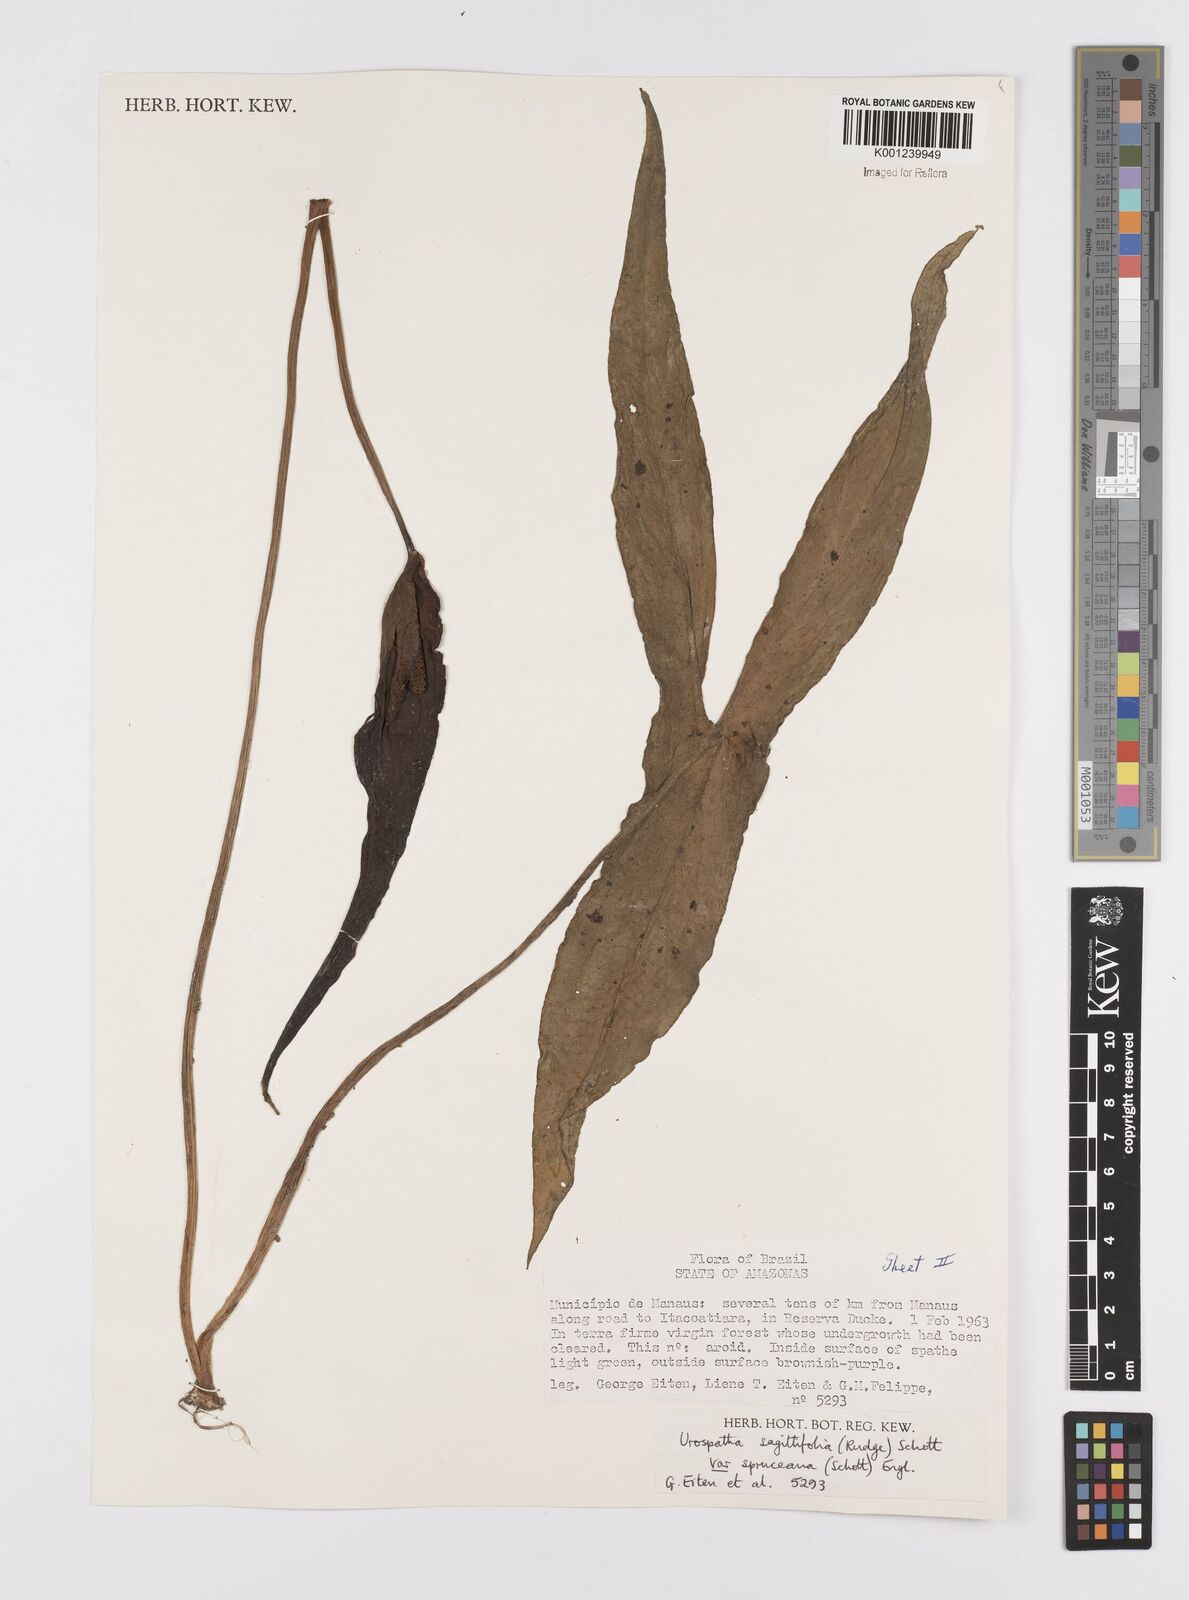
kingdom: Plantae
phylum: Tracheophyta
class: Liliopsida
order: Alismatales
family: Araceae
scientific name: Araceae
